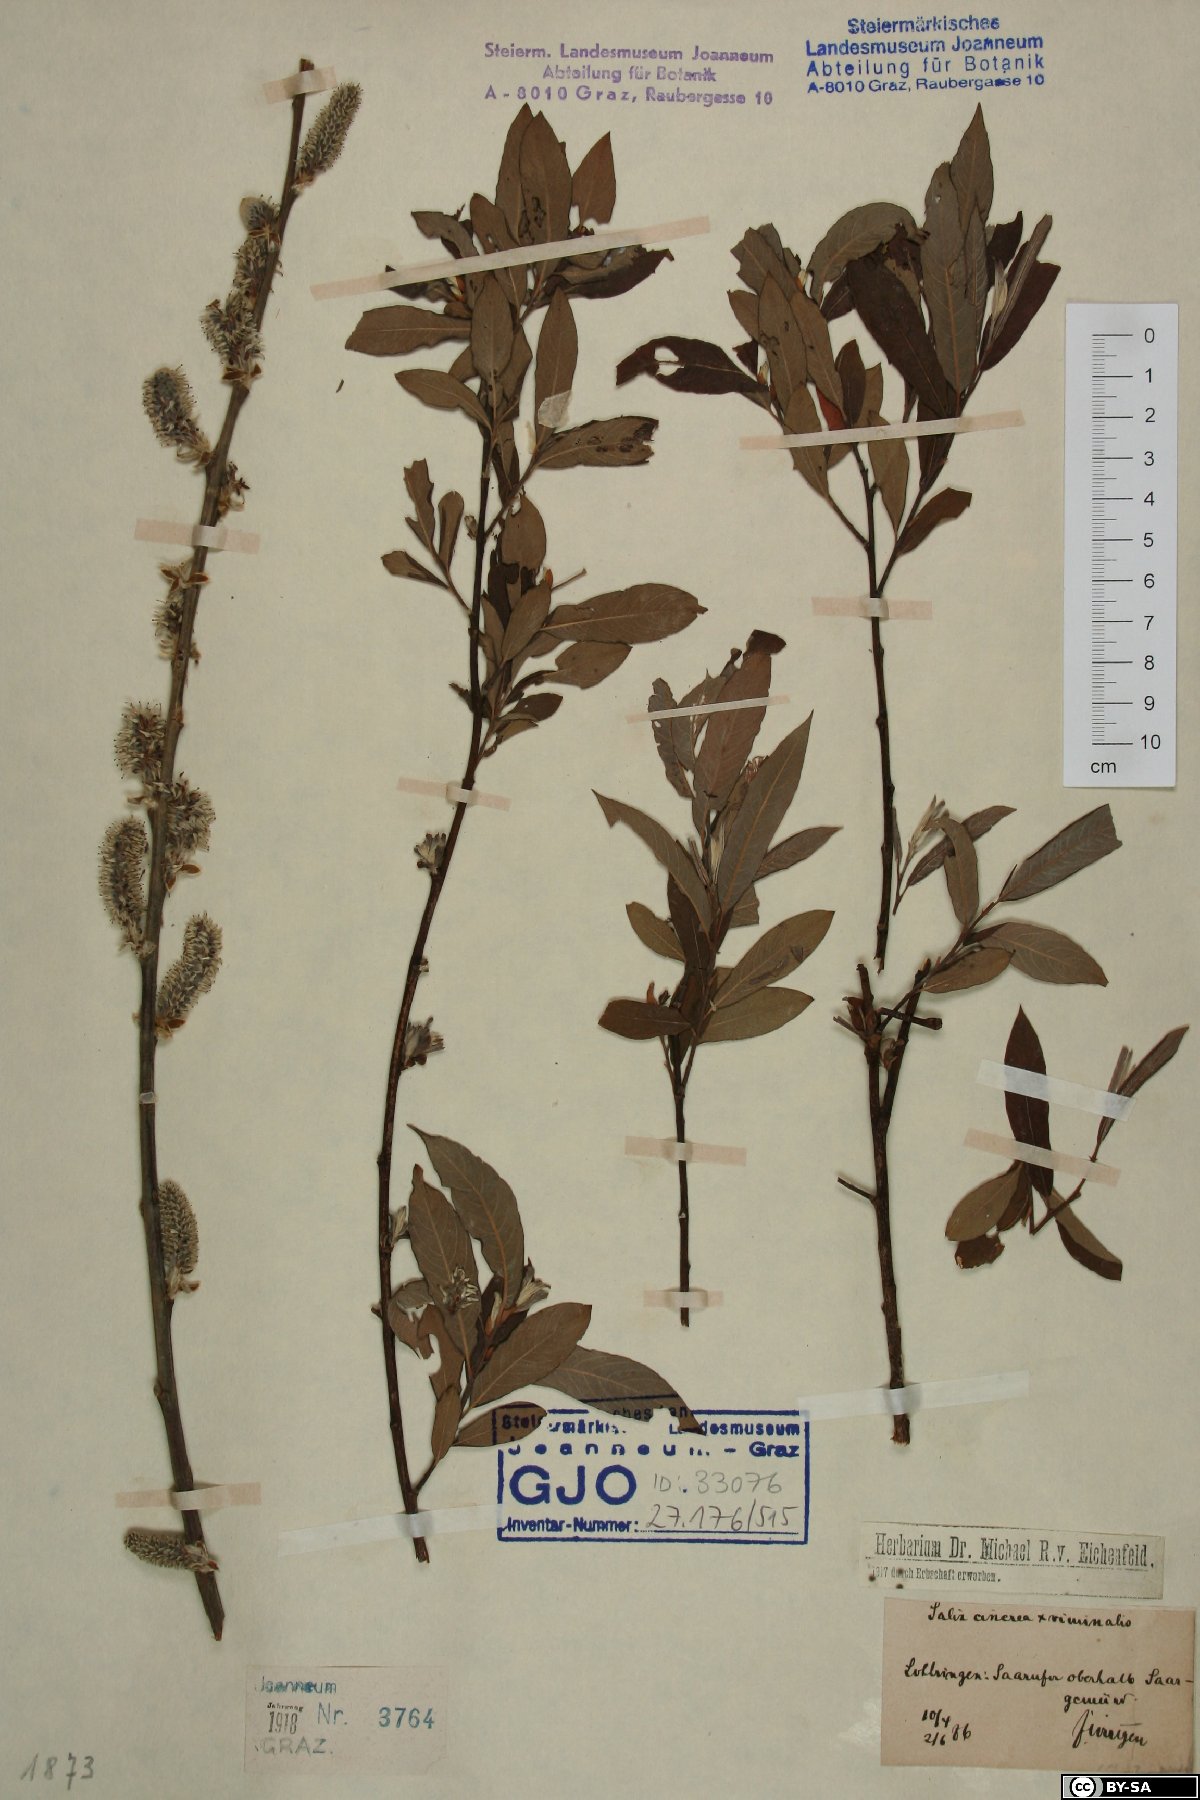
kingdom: Plantae
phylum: Tracheophyta
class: Magnoliopsida
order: Malpighiales
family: Salicaceae
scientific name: Salicaceae
